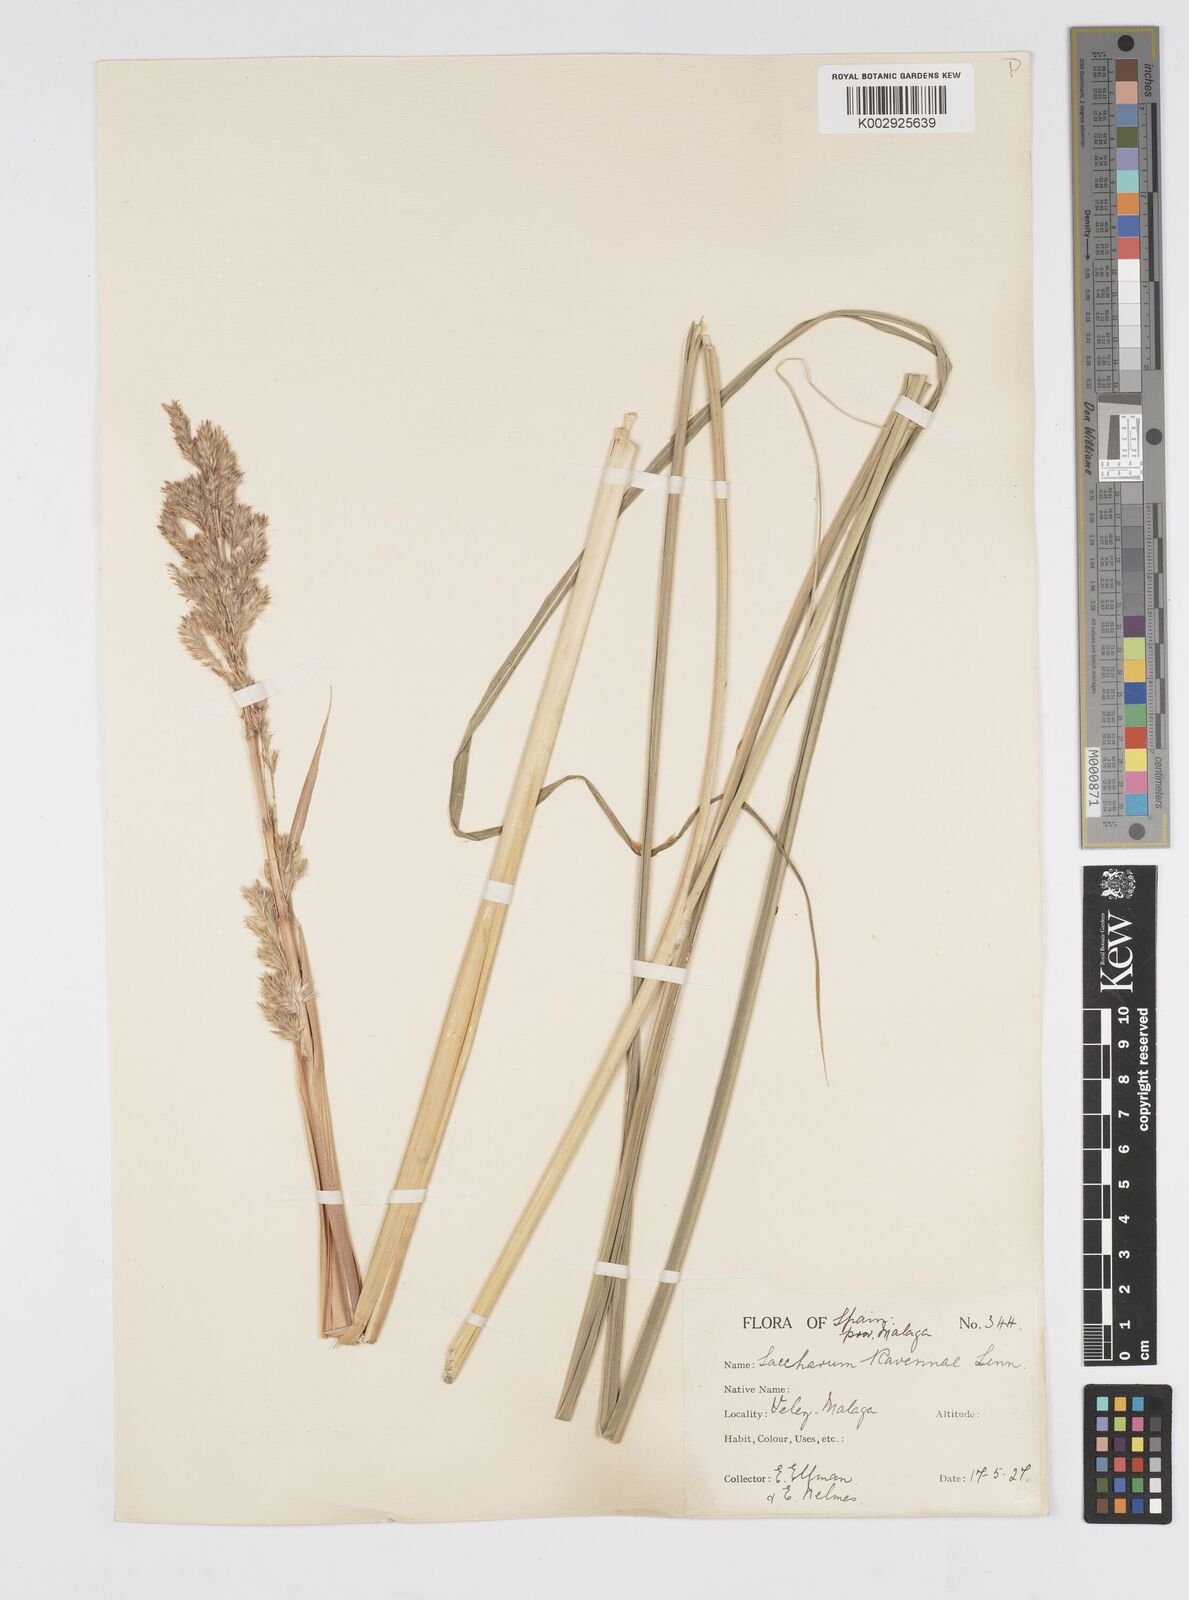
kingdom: Plantae
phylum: Tracheophyta
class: Liliopsida
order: Poales
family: Poaceae
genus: Tripidium
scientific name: Tripidium ravennae
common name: Ravenna grass
